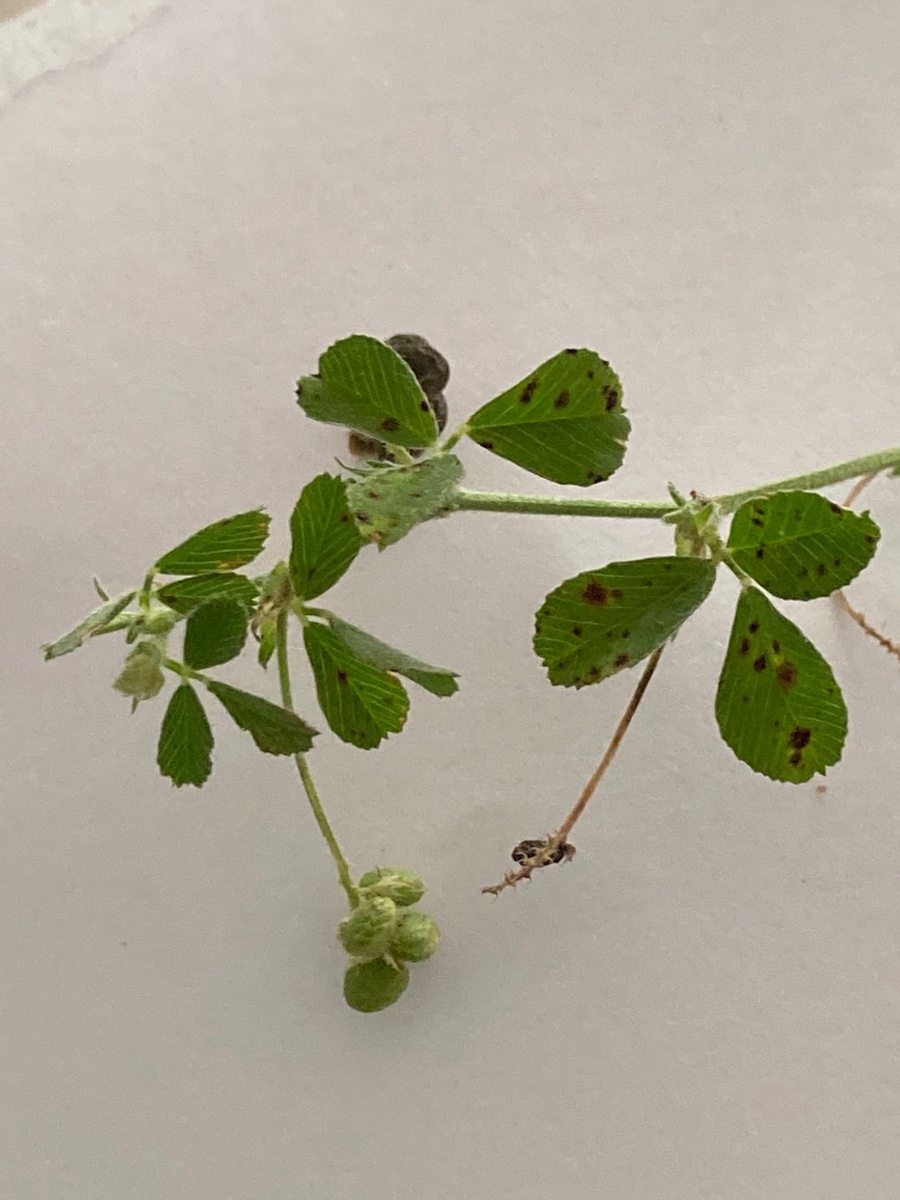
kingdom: Fungi
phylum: Ascomycota
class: Leotiomycetes
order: Helotiales
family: Drepanopezizaceae
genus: Pseudopeziza
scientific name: Pseudopeziza medicaginis
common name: sneglebælg-bladskive
